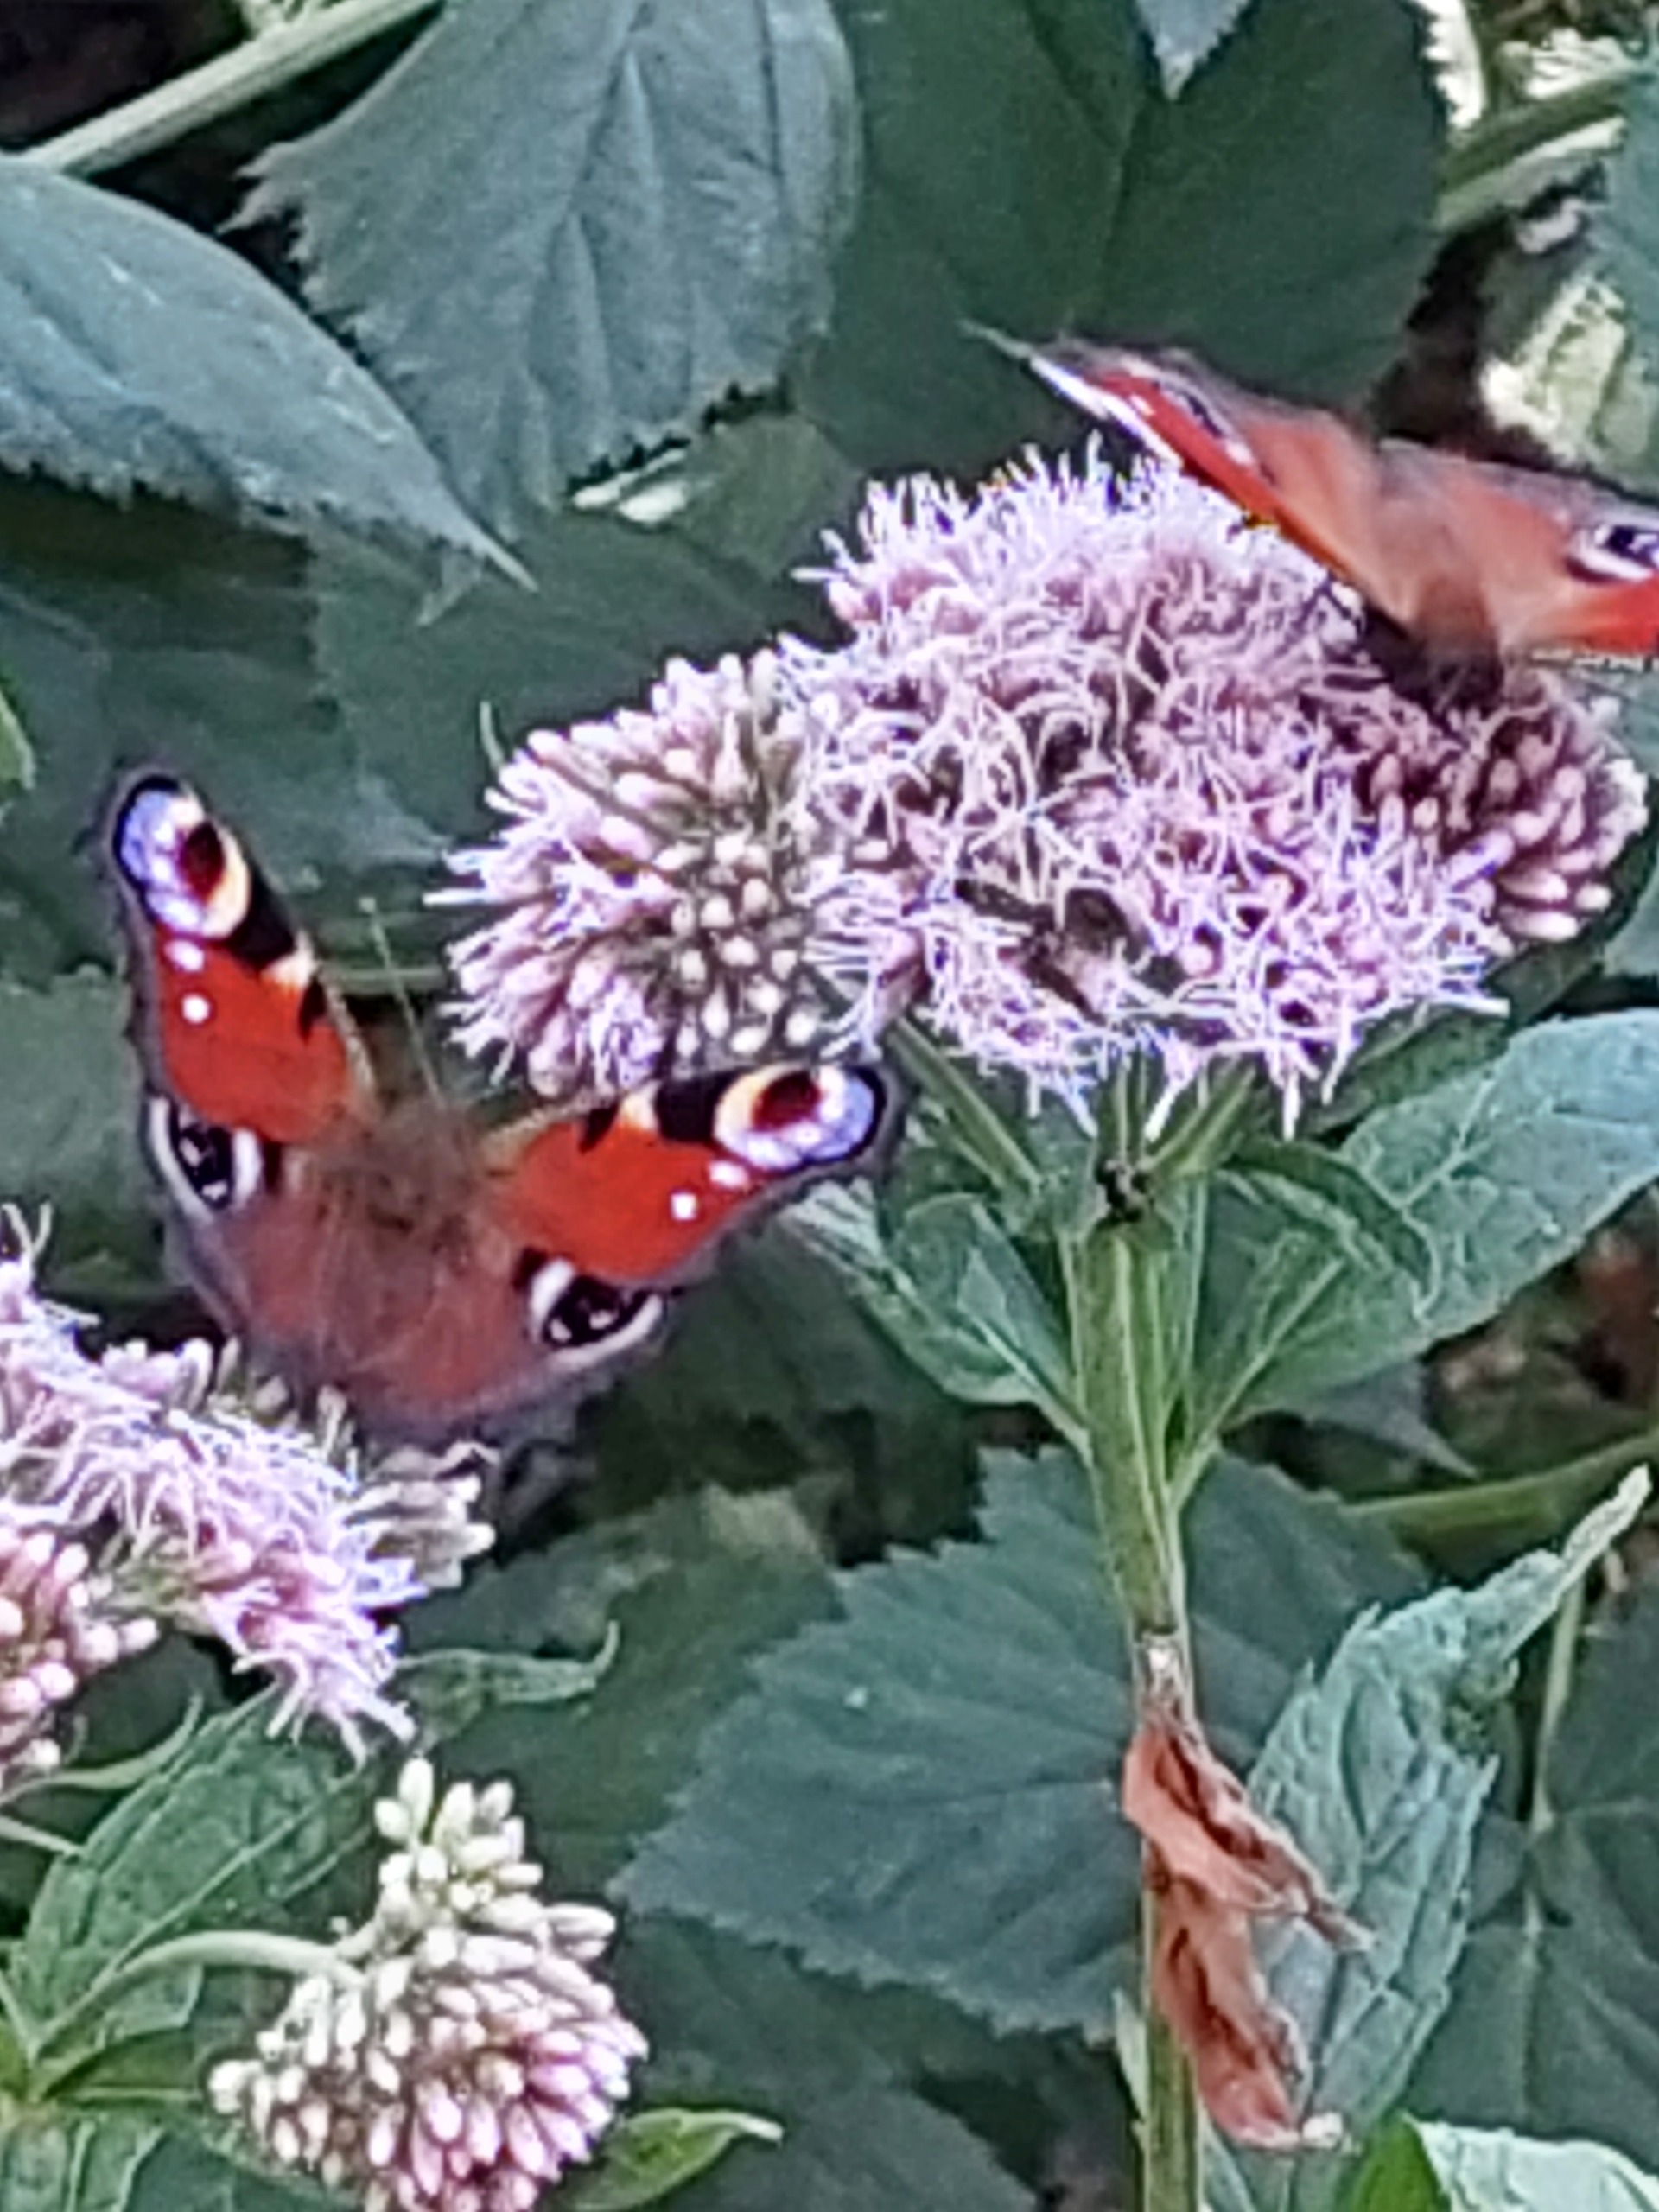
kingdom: Animalia
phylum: Arthropoda
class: Insecta
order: Lepidoptera
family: Nymphalidae
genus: Aglais
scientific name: Aglais io
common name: Dagpåfugleøje
